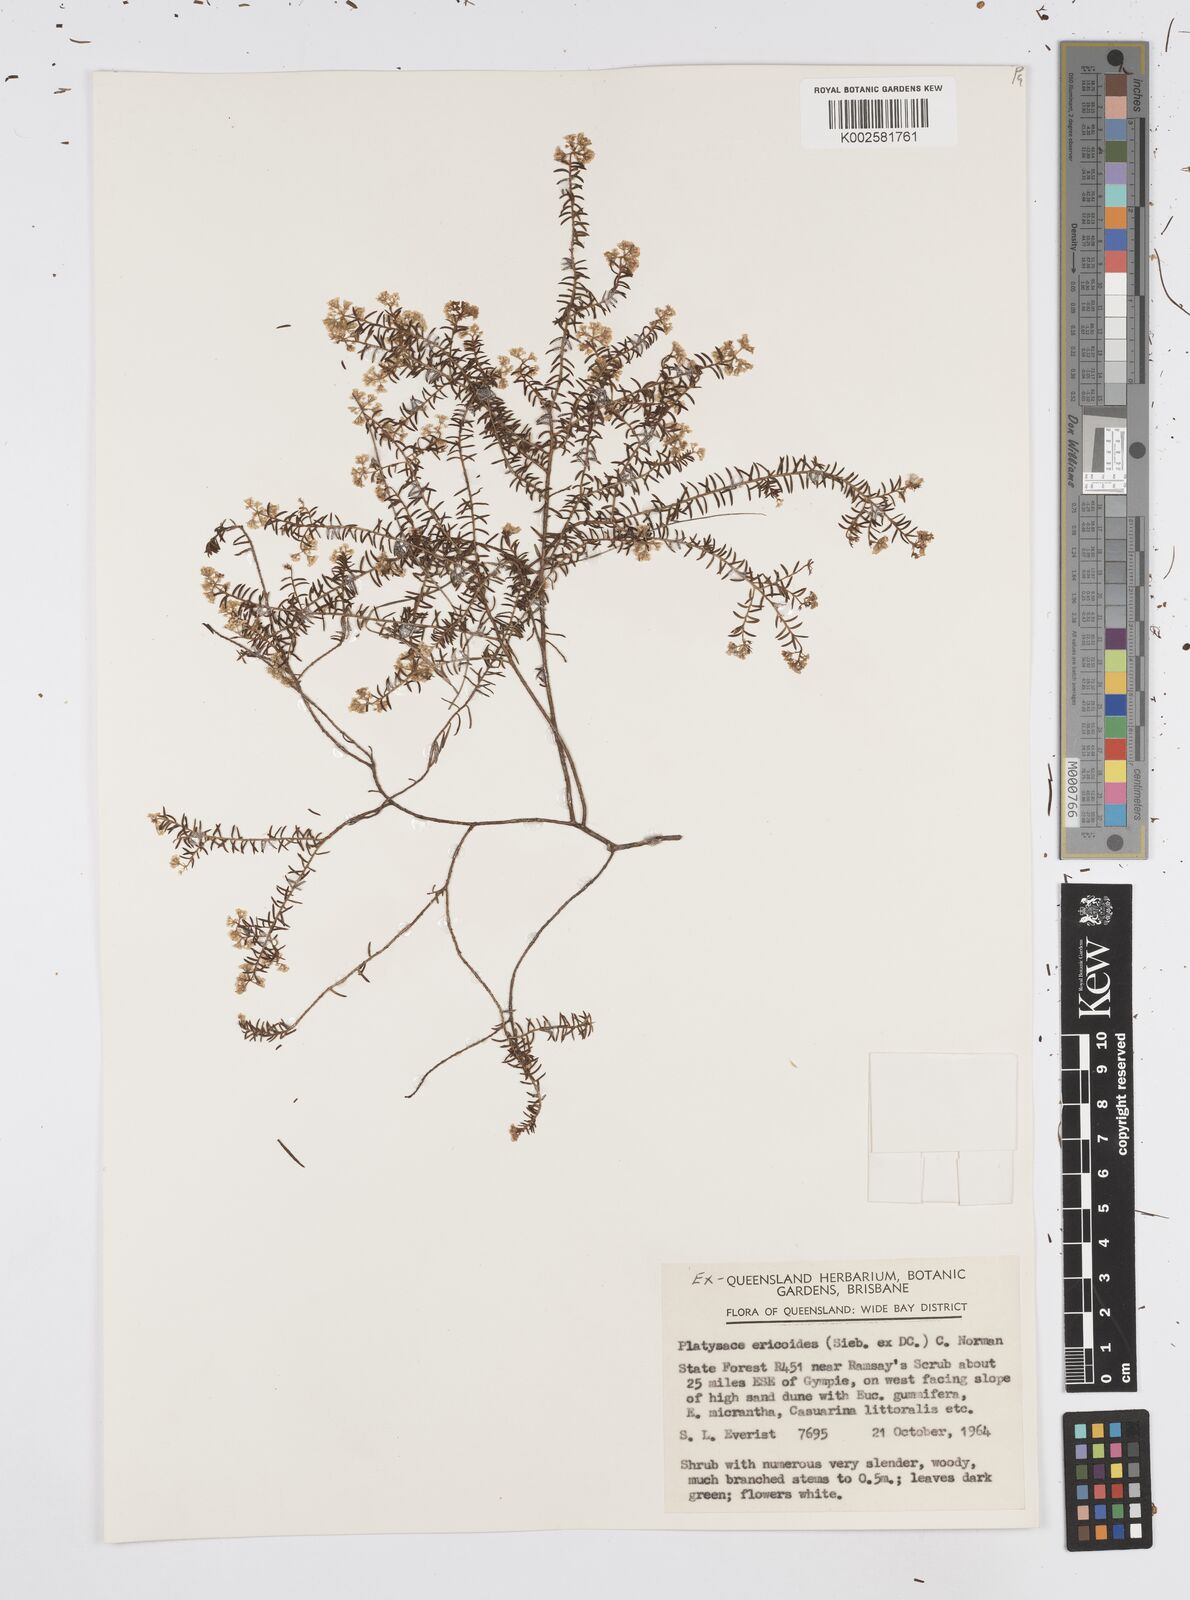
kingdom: Plantae
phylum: Tracheophyta
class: Magnoliopsida
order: Apiales
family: Apiaceae
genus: Platysace
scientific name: Platysace ericoides
